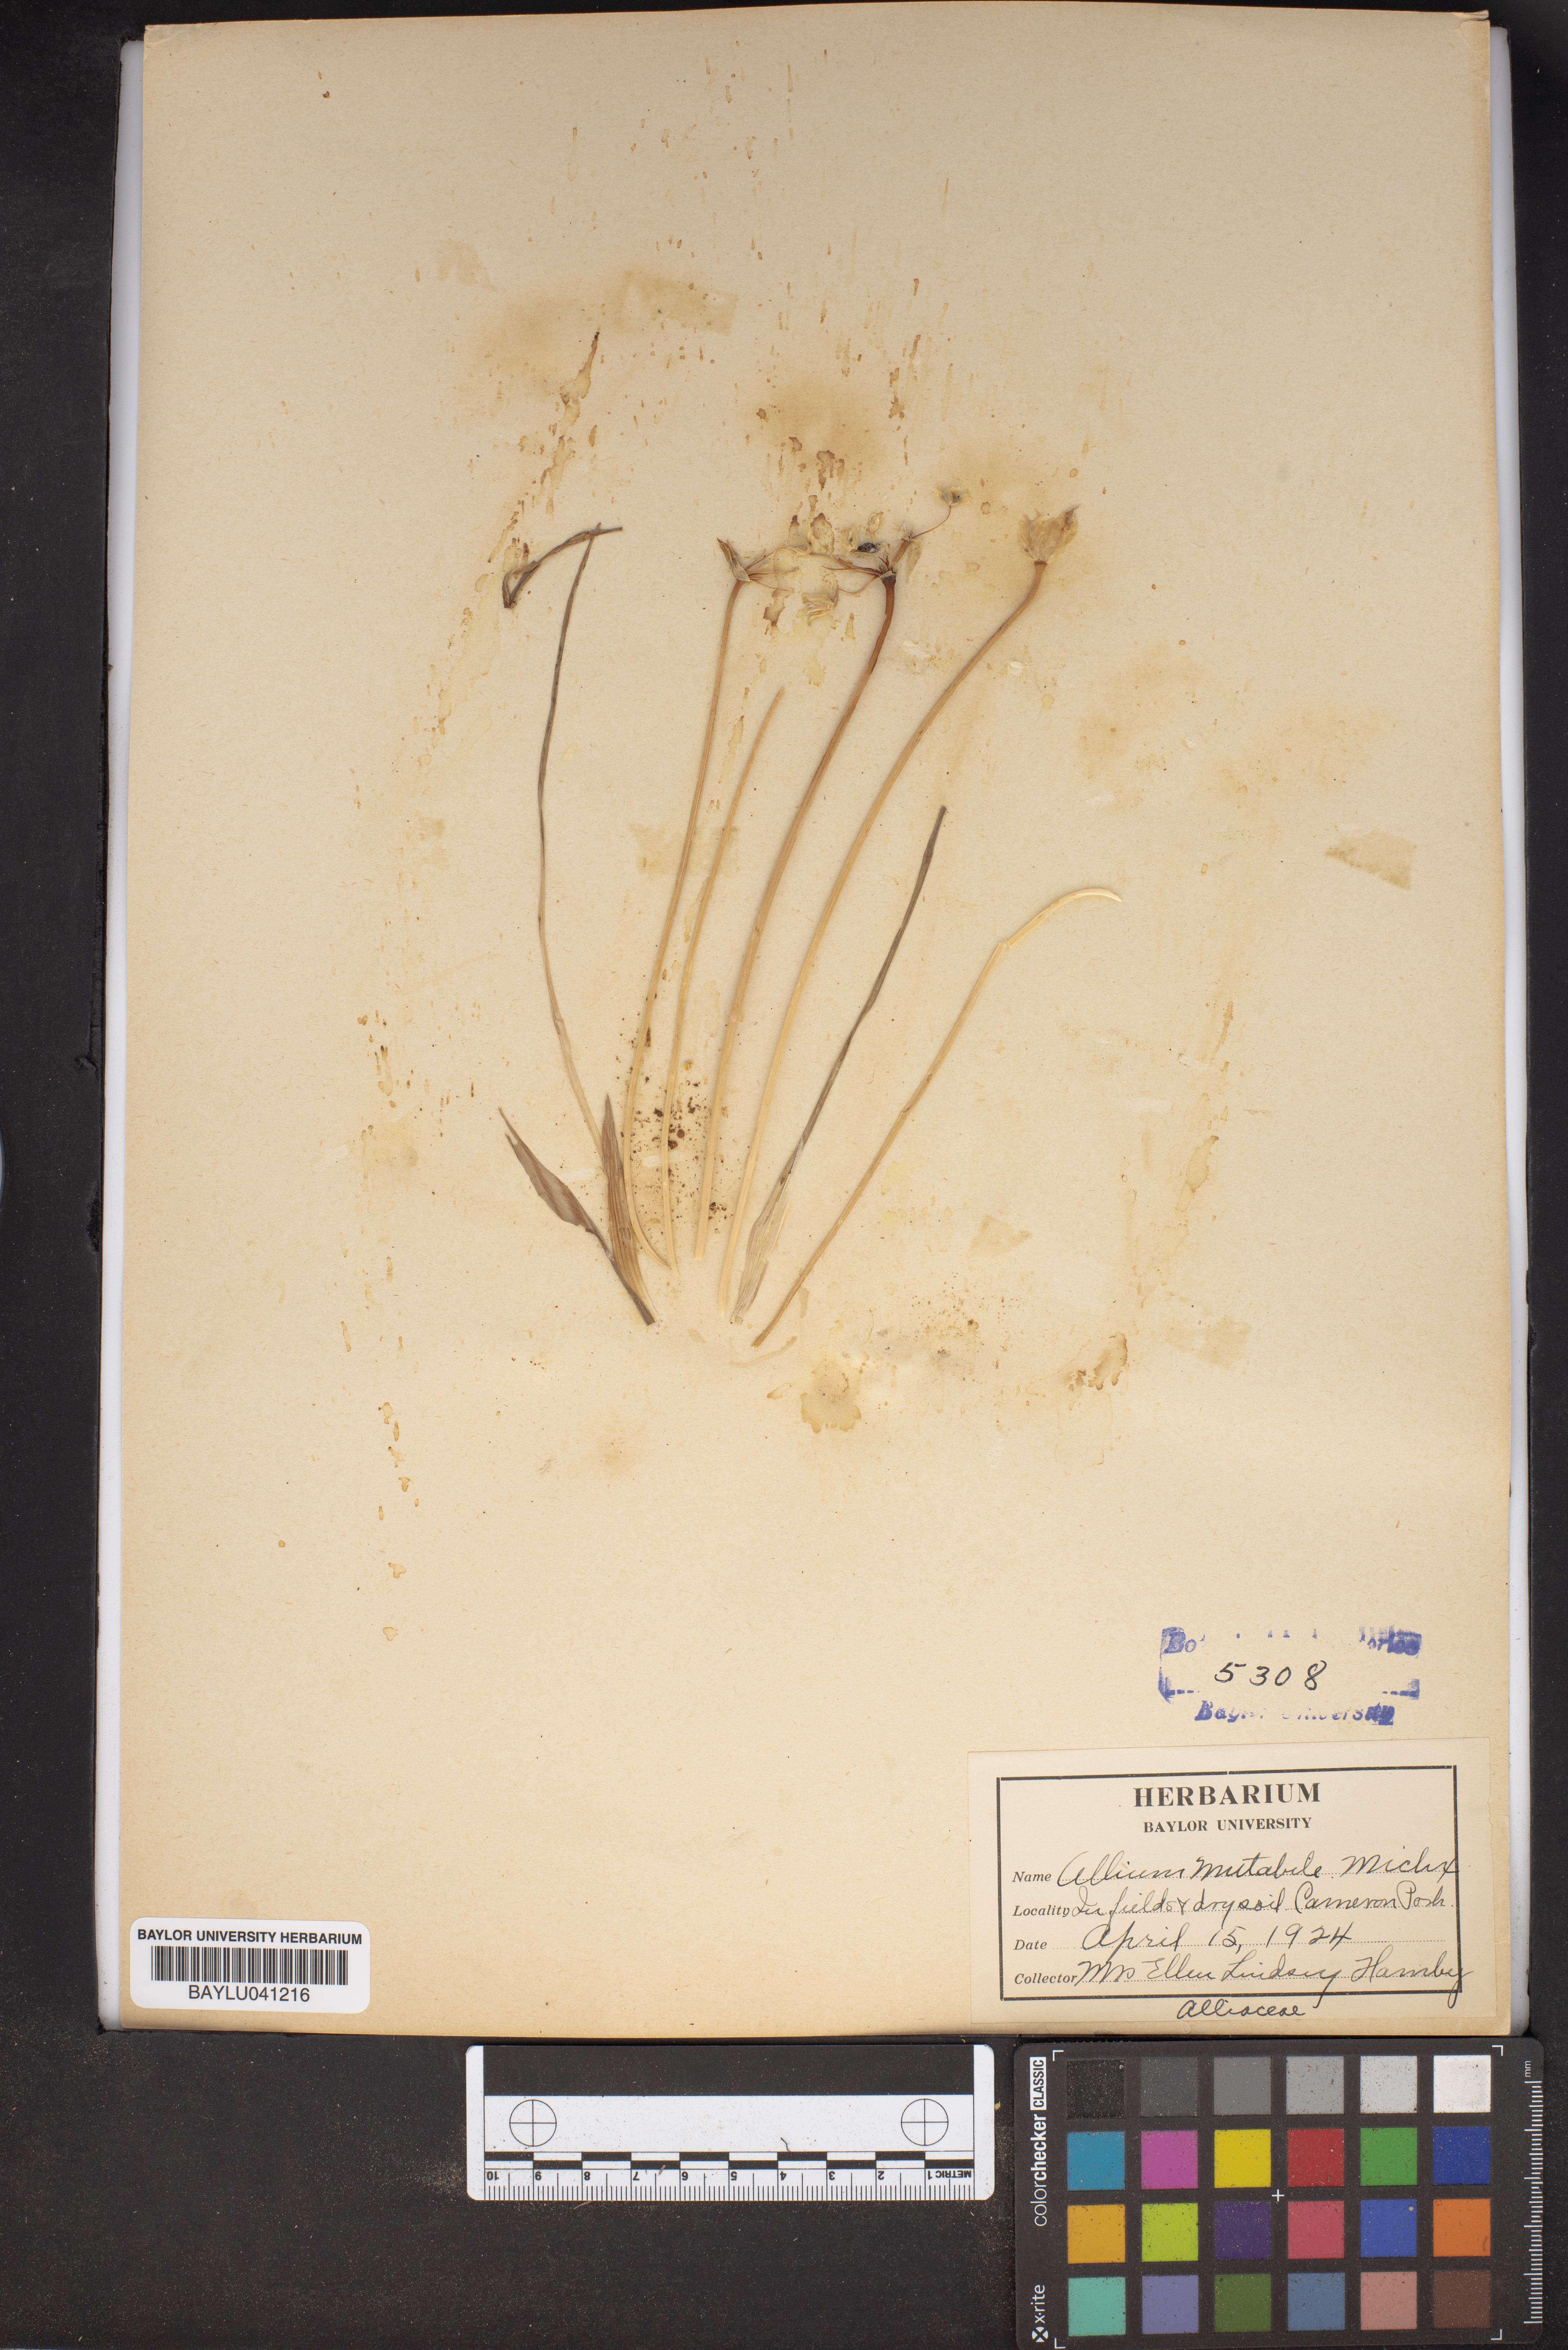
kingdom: Plantae
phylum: Tracheophyta
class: Liliopsida
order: Asparagales
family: Amaryllidaceae
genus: Allium
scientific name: Allium canadense
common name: Meadow garlic
